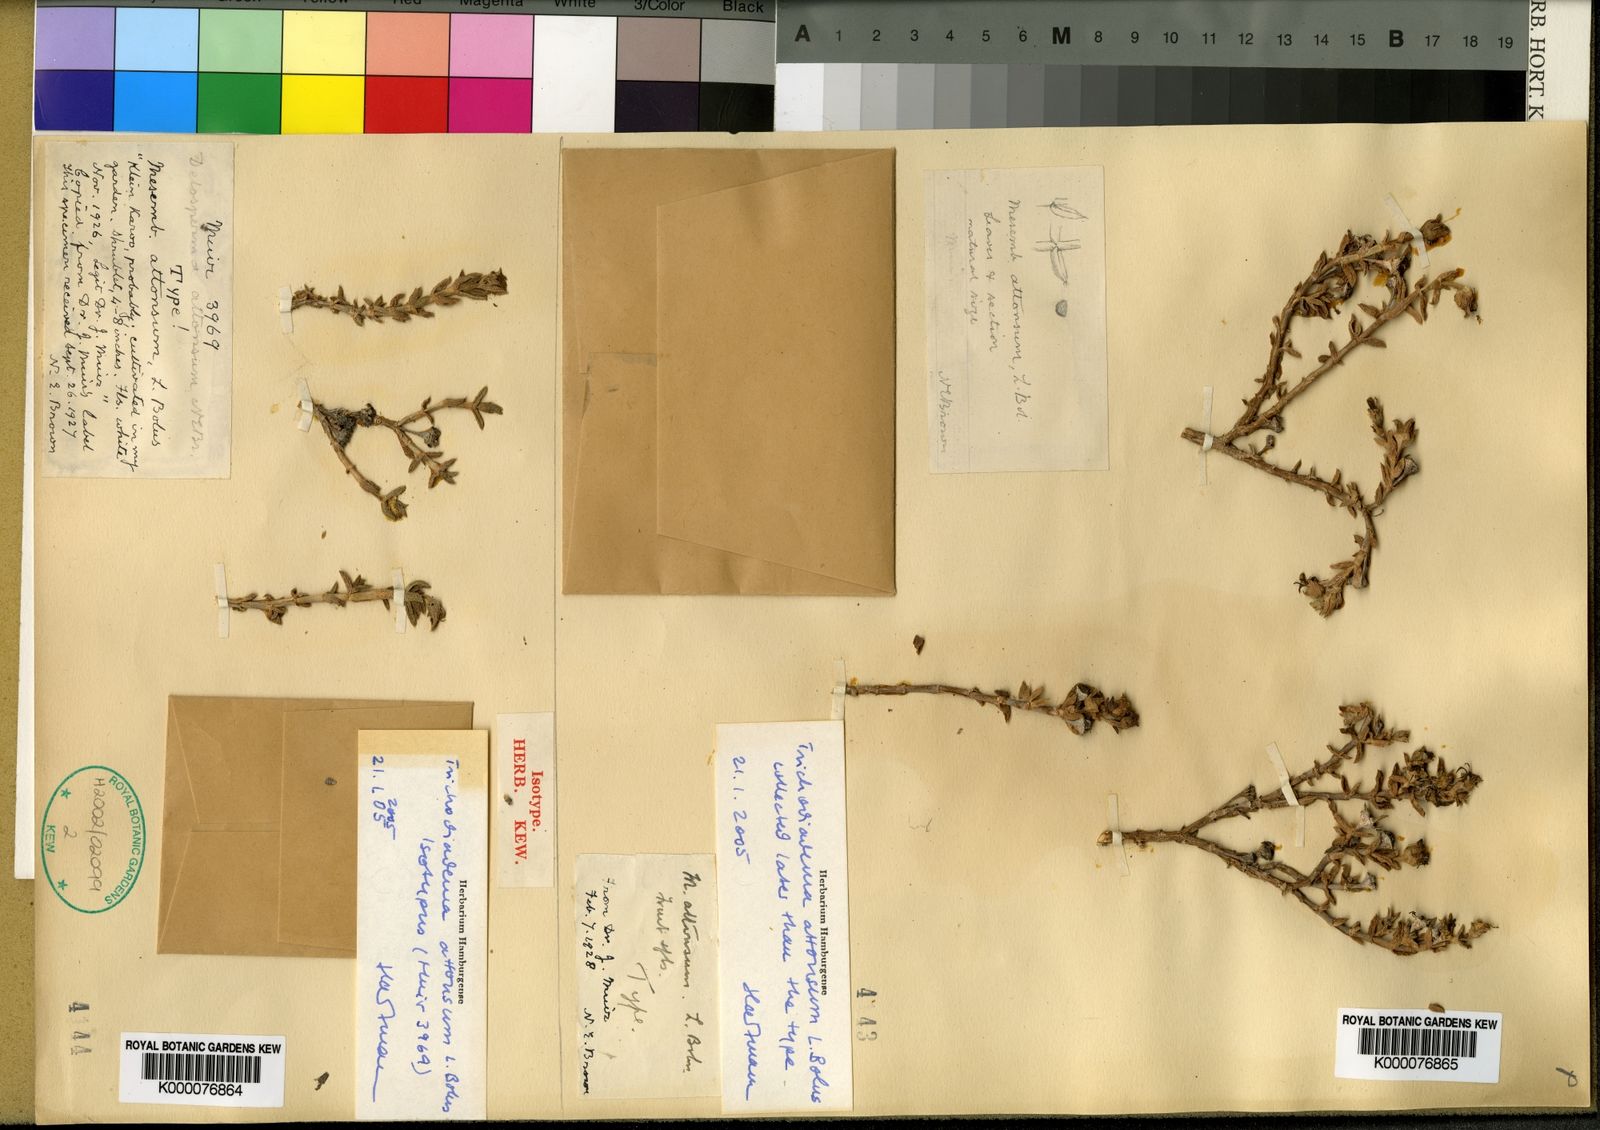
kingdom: Plantae
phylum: Tracheophyta
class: Magnoliopsida
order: Caryophyllales
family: Aizoaceae
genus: Trichodiadema
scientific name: Trichodiadema attonsum
